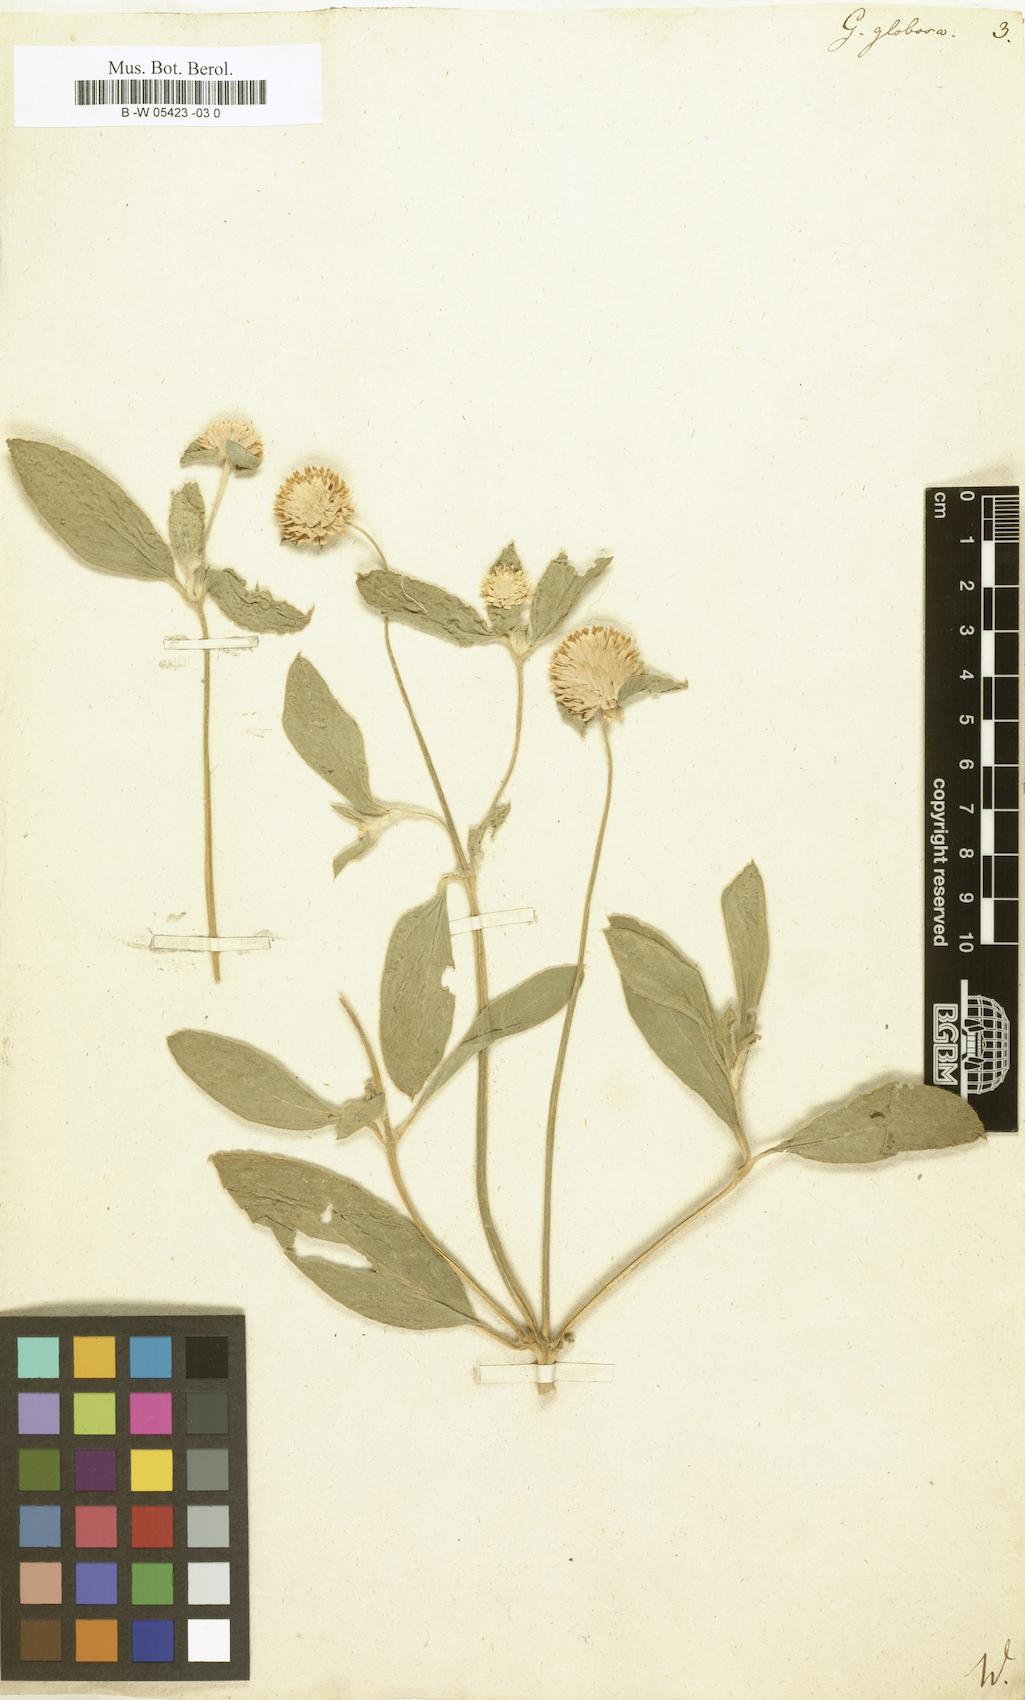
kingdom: Plantae
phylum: Tracheophyta
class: Magnoliopsida
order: Caryophyllales
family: Amaranthaceae
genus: Gomphrena
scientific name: Gomphrena globosa
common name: Common globe amaranth
